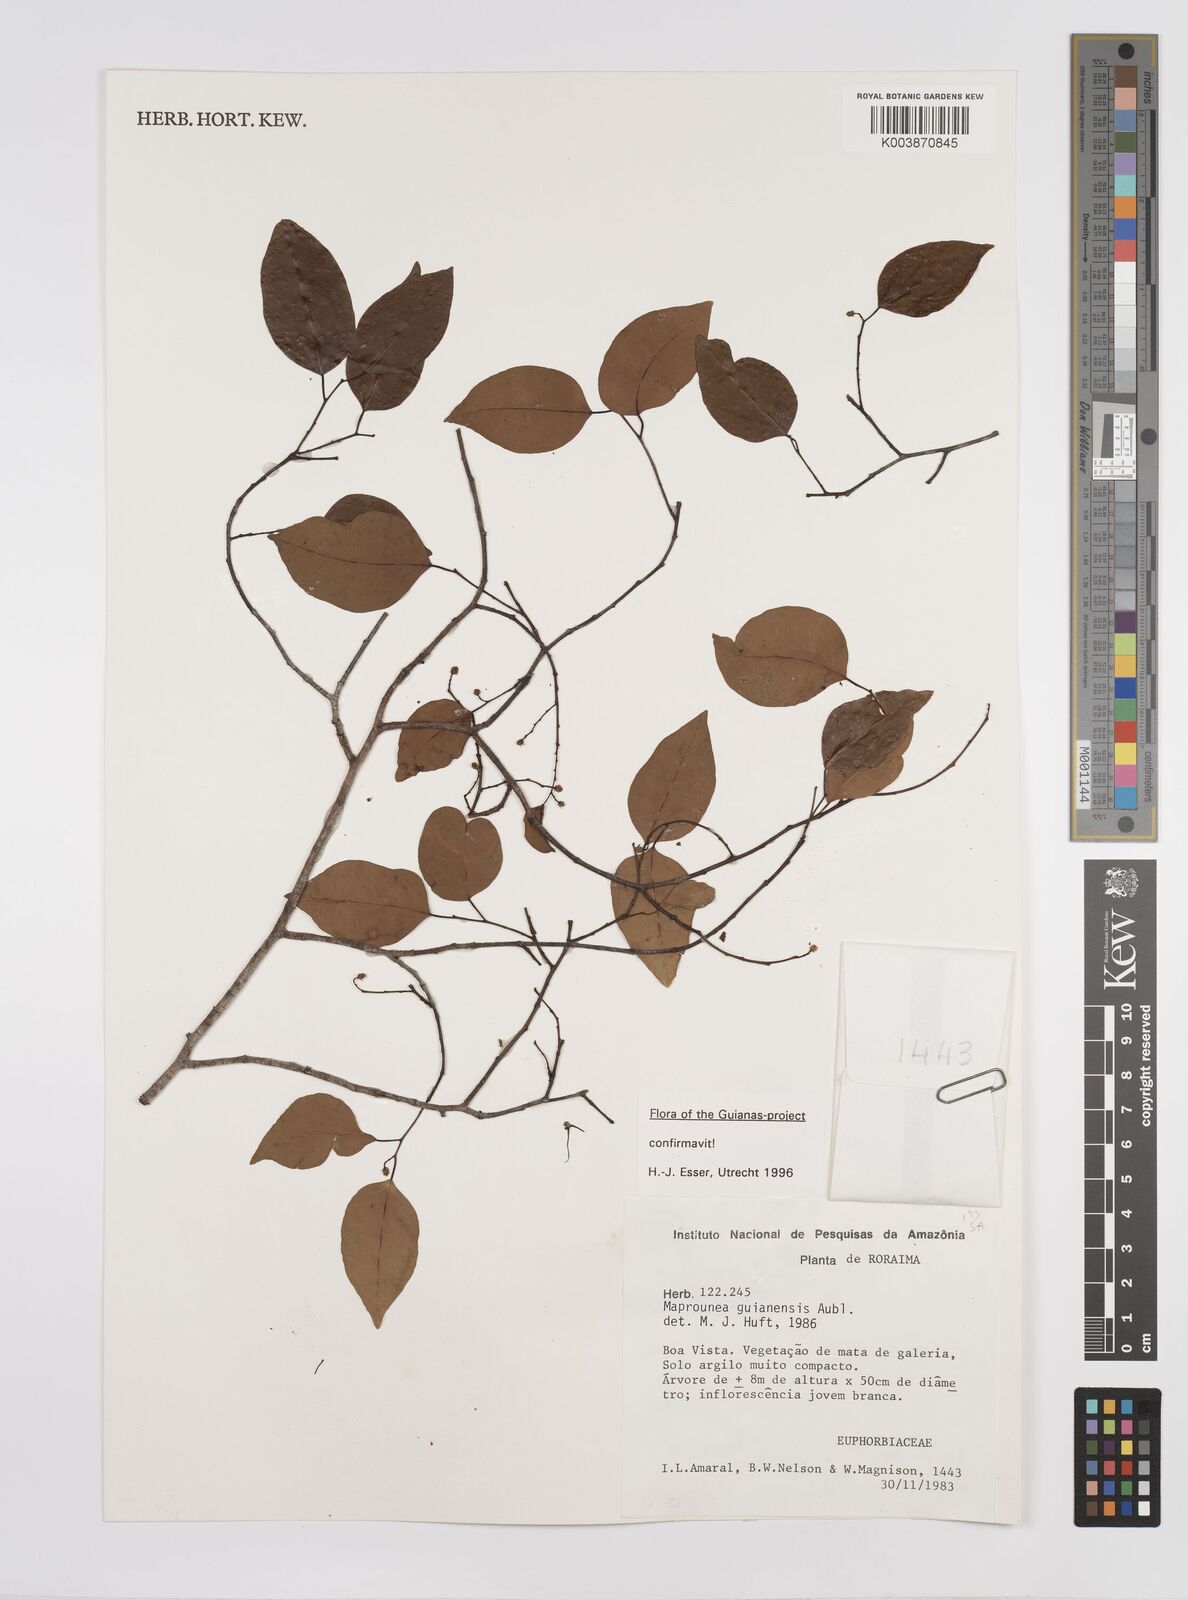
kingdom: Plantae
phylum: Tracheophyta
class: Magnoliopsida
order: Malpighiales
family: Euphorbiaceae
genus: Maprounea
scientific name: Maprounea guianensis
